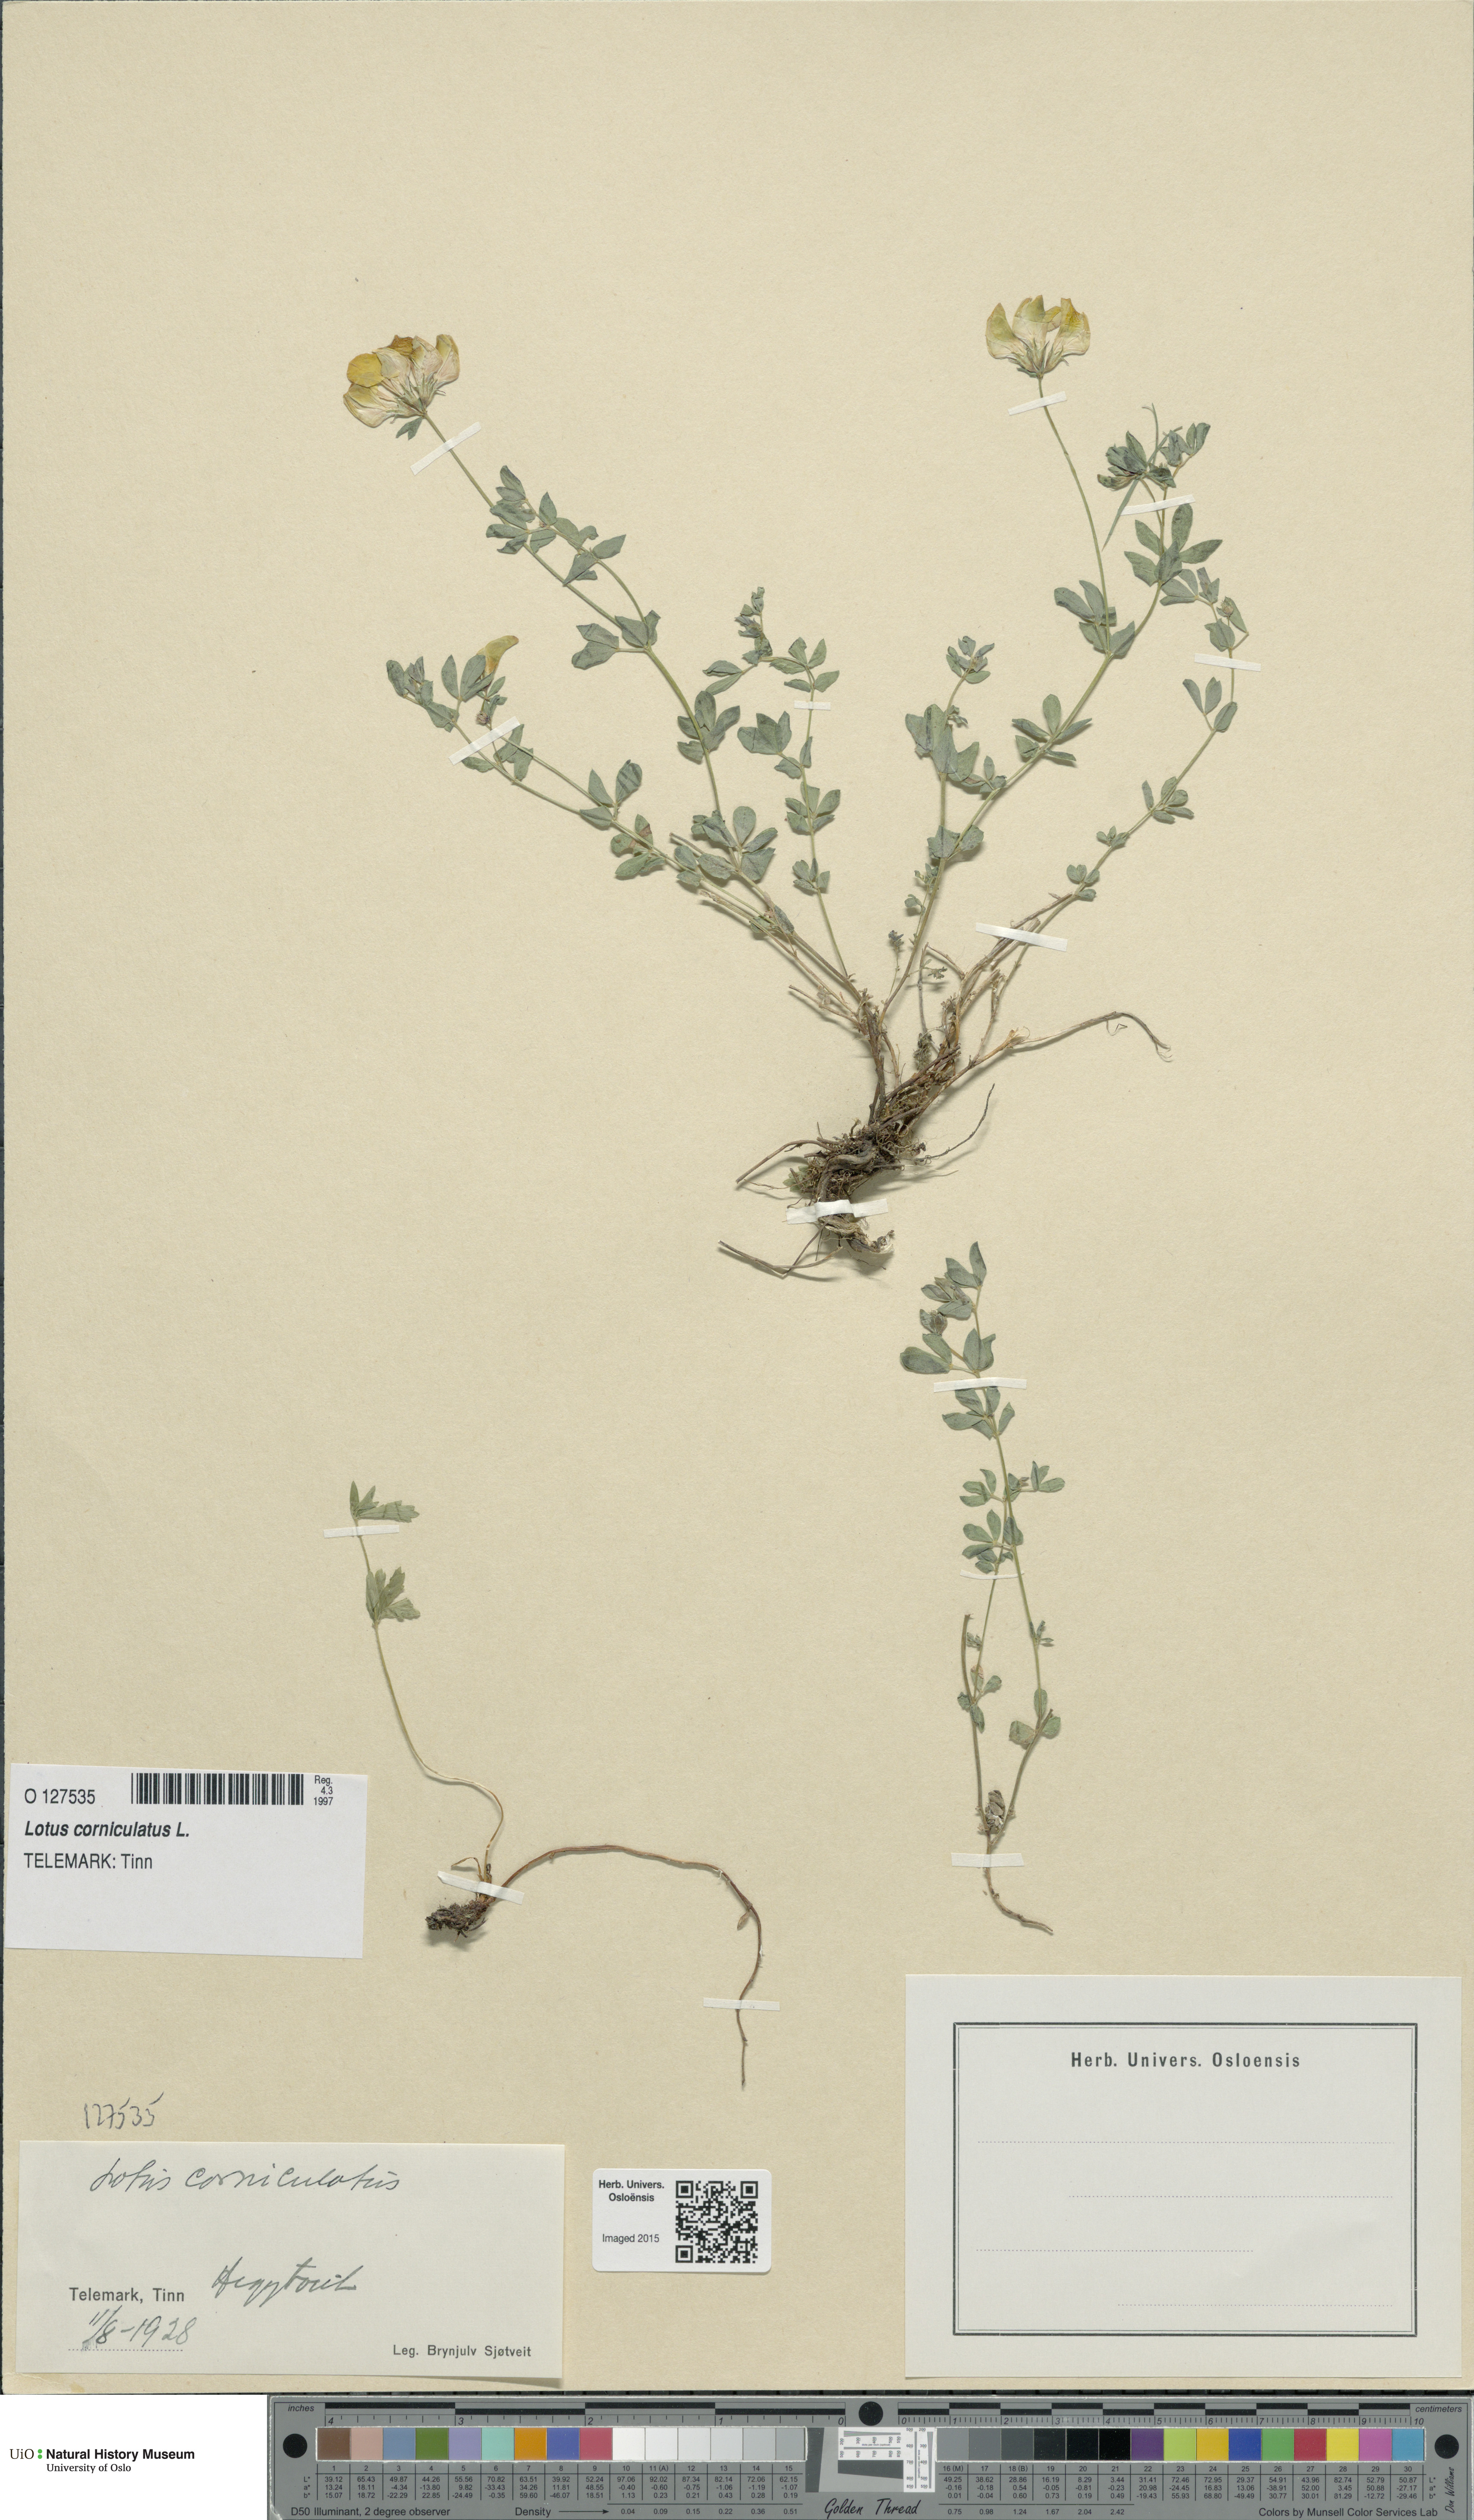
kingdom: Plantae
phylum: Tracheophyta
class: Magnoliopsida
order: Fabales
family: Fabaceae
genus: Lotus
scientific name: Lotus corniculatus
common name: Common bird's-foot-trefoil
